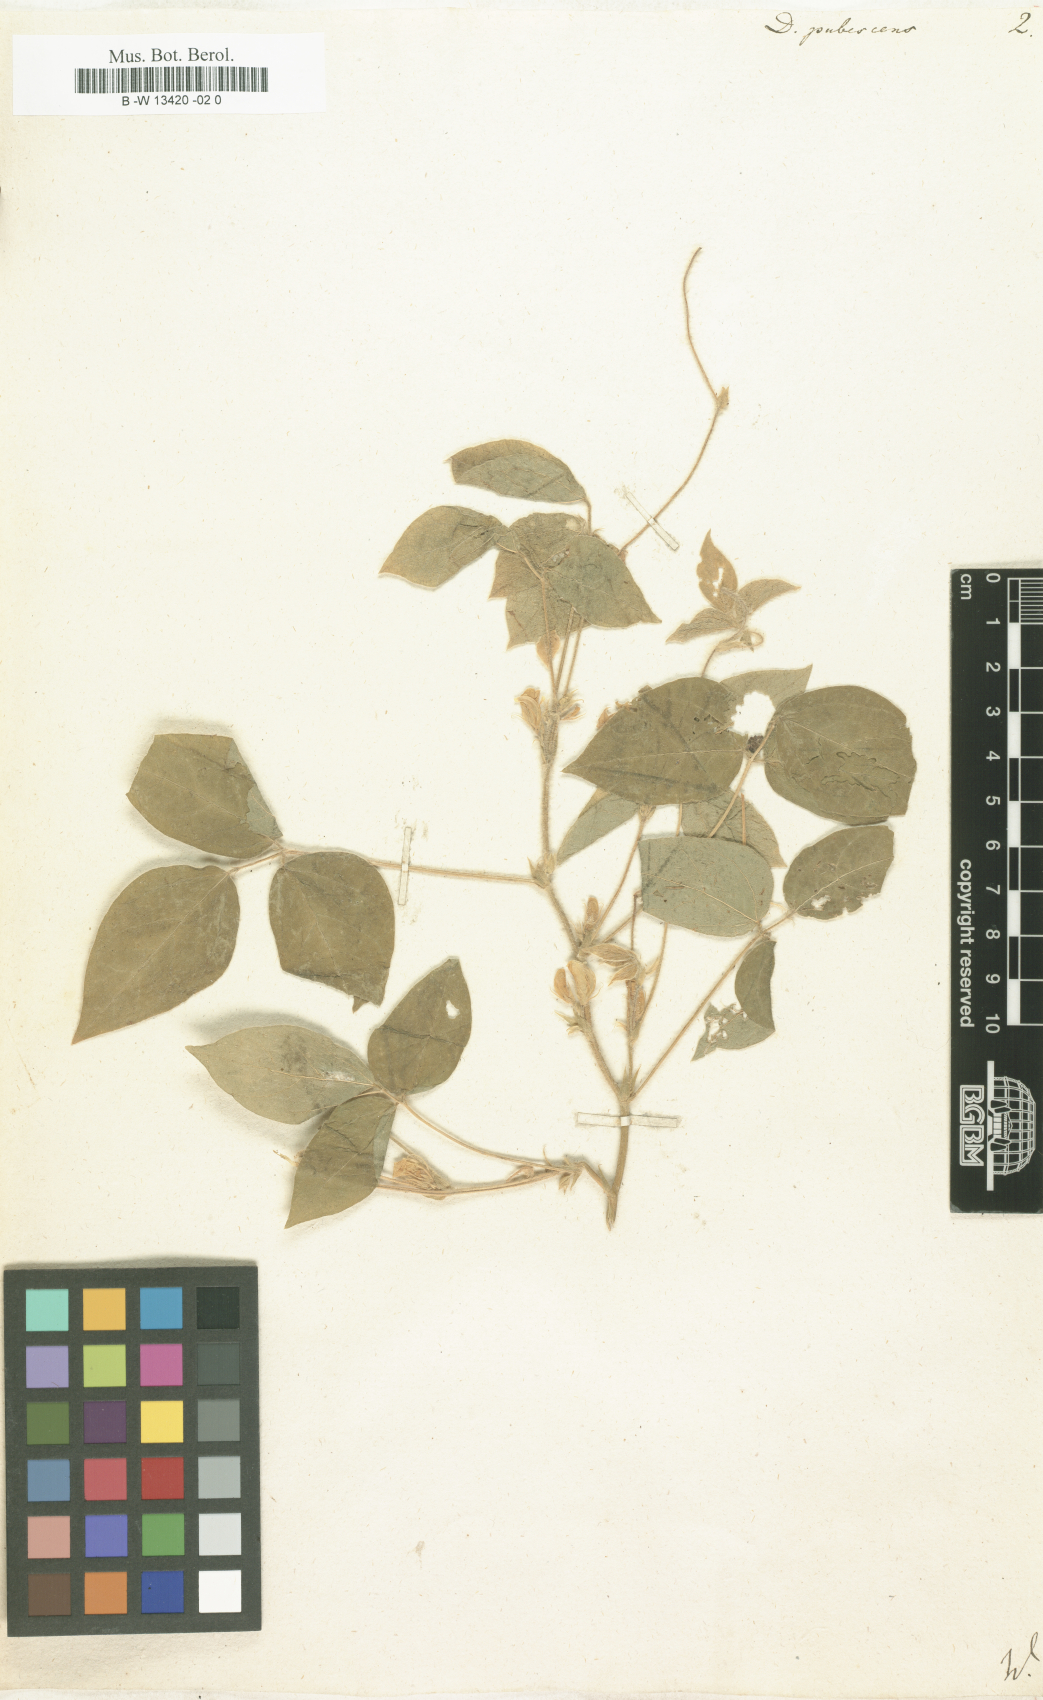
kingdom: Plantae
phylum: Tracheophyta
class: Magnoliopsida
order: Fabales
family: Fabaceae
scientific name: Fabaceae
